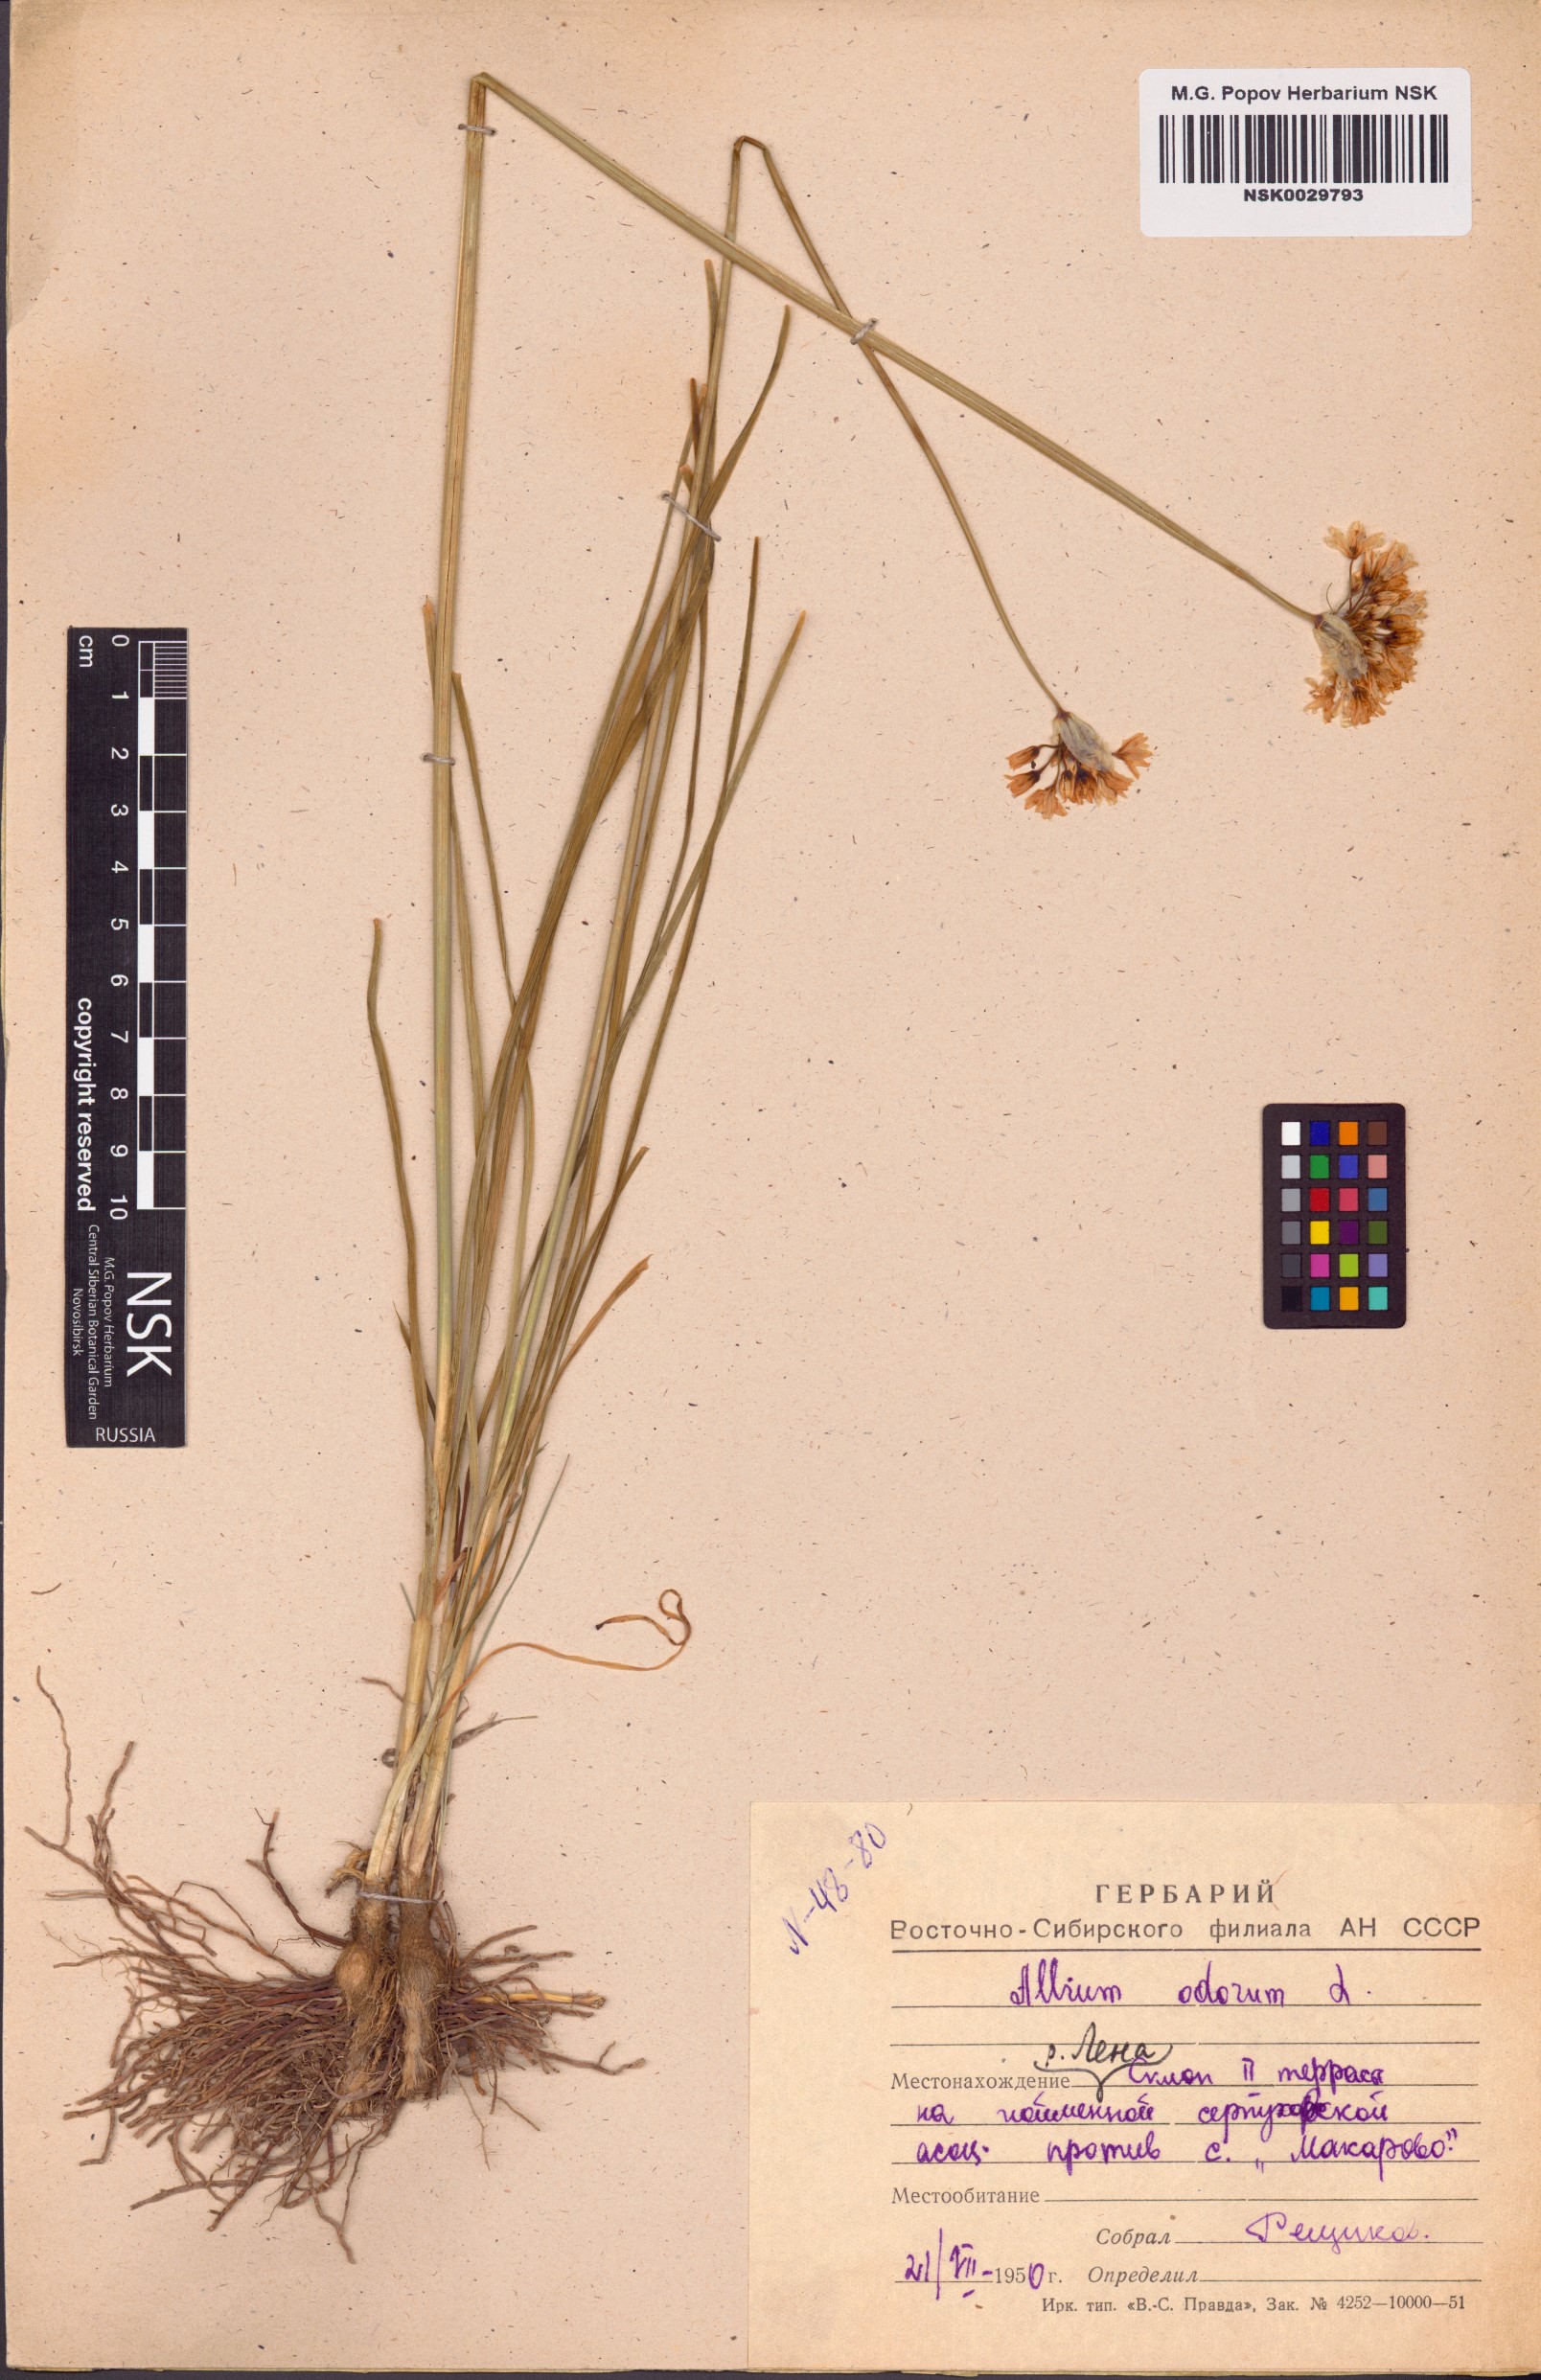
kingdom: Plantae
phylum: Tracheophyta
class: Liliopsida
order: Asparagales
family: Amaryllidaceae
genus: Allium
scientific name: Allium ramosum
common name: Fragrant garlic
